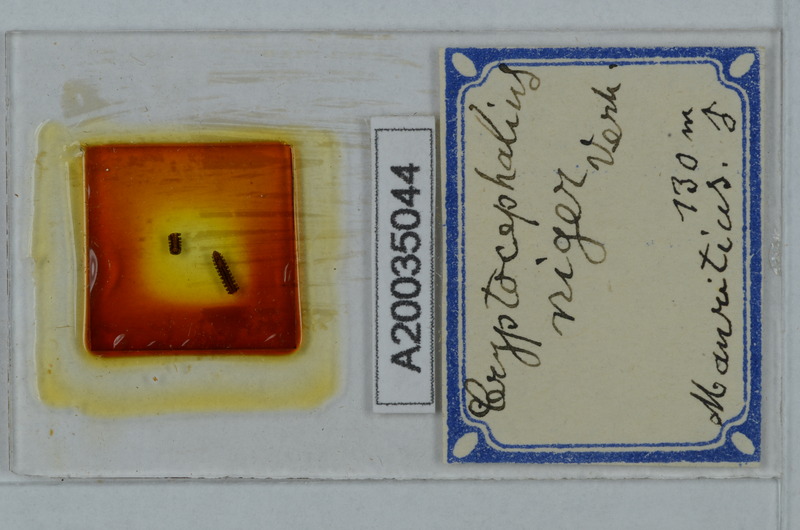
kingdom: Animalia
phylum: Arthropoda
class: Diplopoda
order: Polydesmida
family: Cryptodesmidae
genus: Cryptodesmus
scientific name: Cryptodesmus
